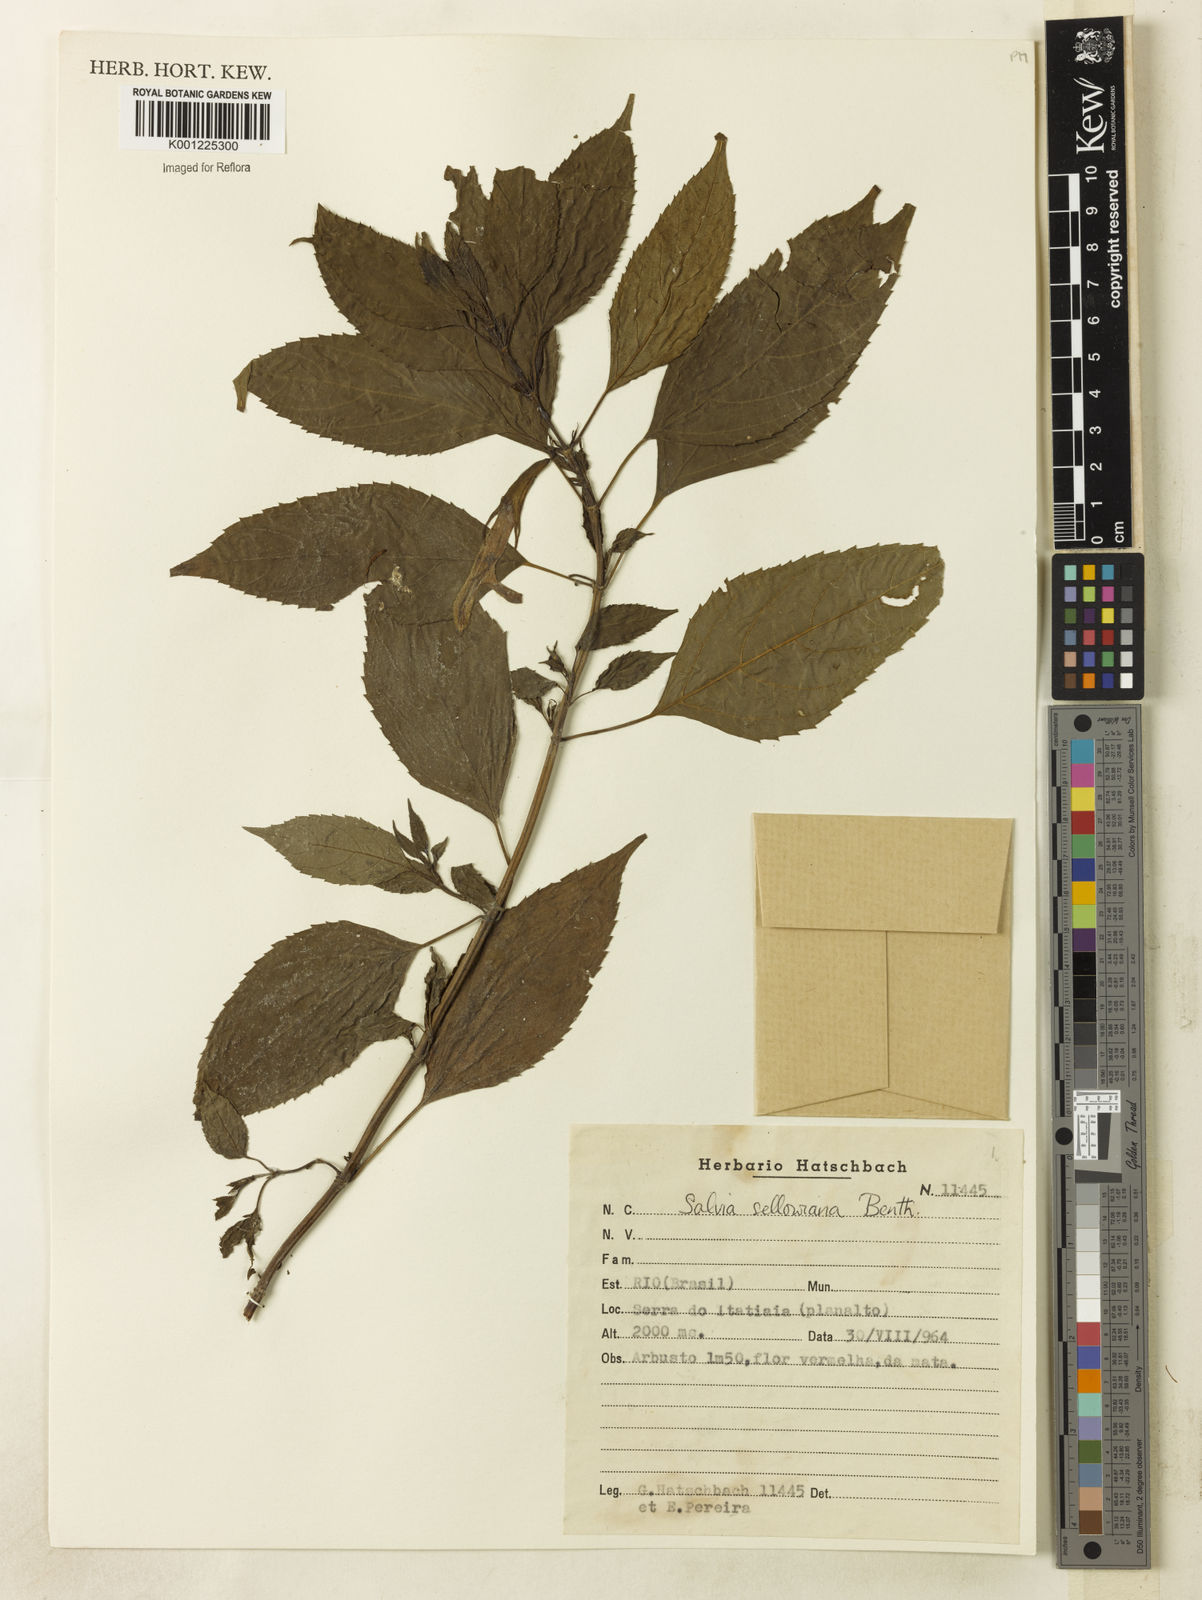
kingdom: Plantae
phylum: Tracheophyta
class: Magnoliopsida
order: Lamiales
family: Lamiaceae
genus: Salvia
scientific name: Salvia sellowiana
